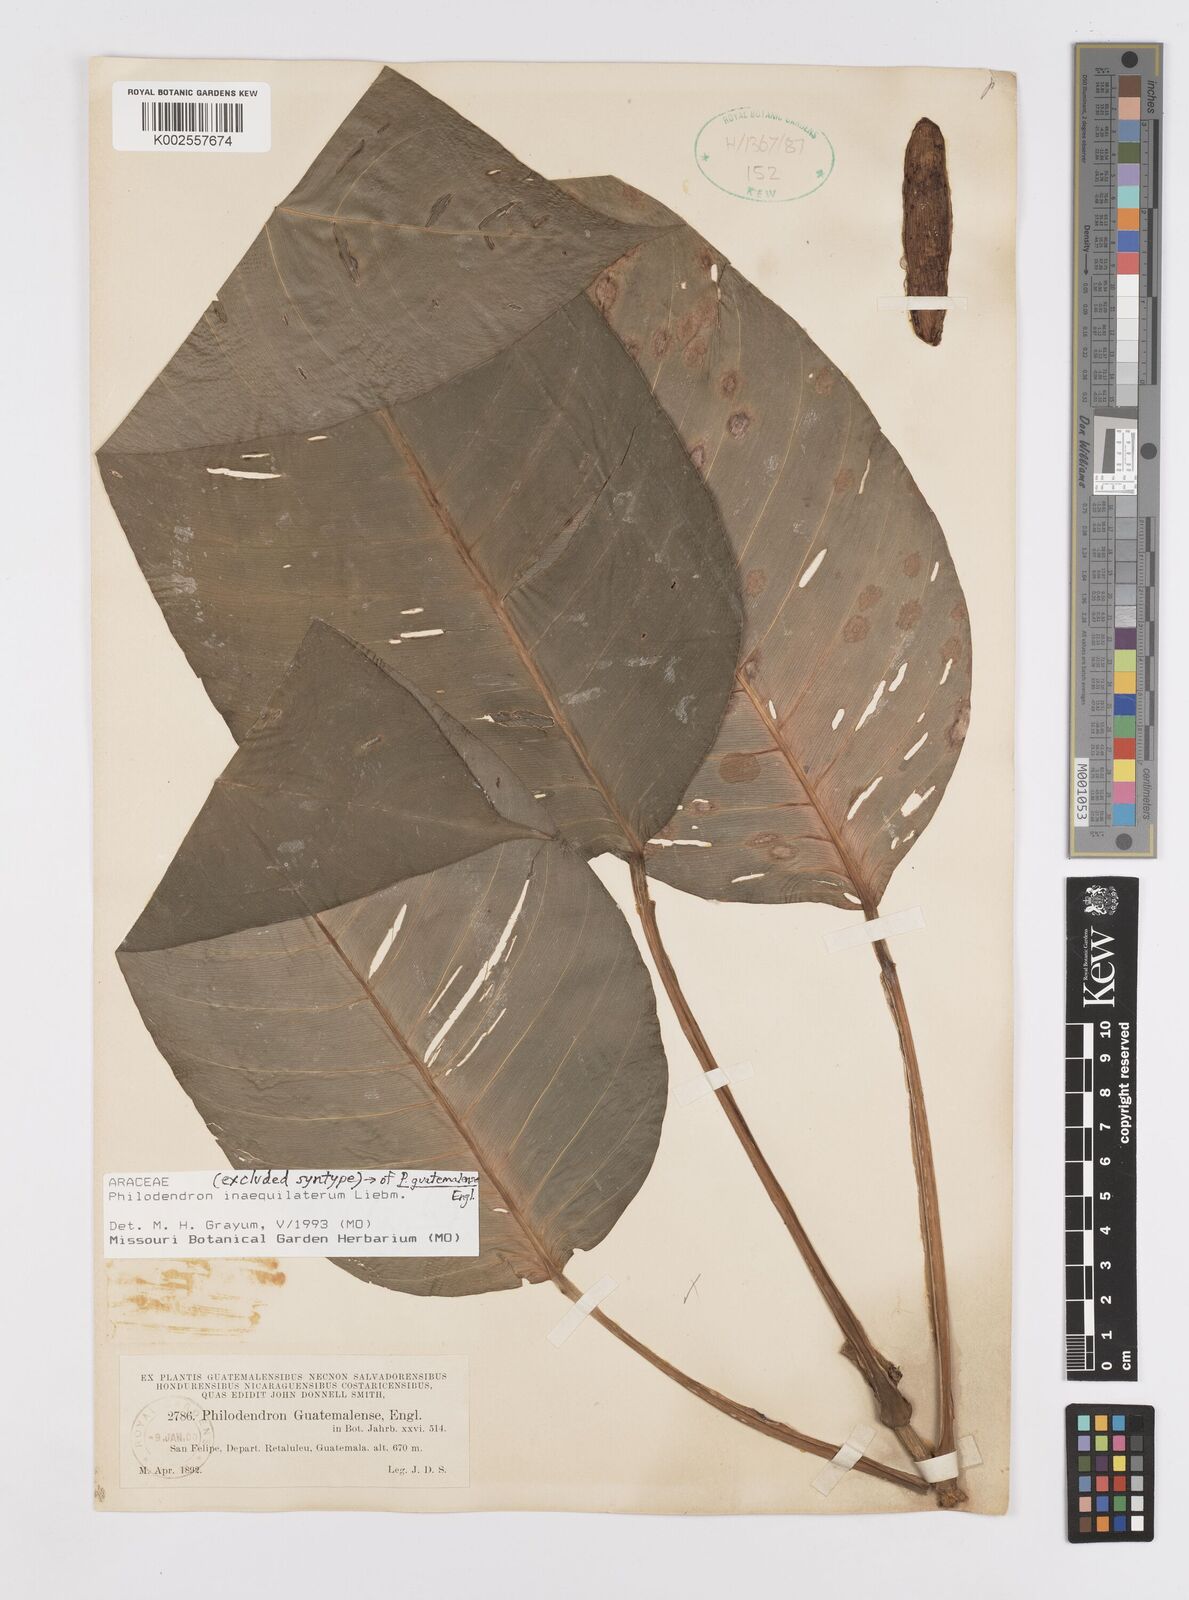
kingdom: Plantae
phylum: Tracheophyta
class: Liliopsida
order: Alismatales
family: Araceae
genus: Philodendron
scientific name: Philodendron inaequilaterum
